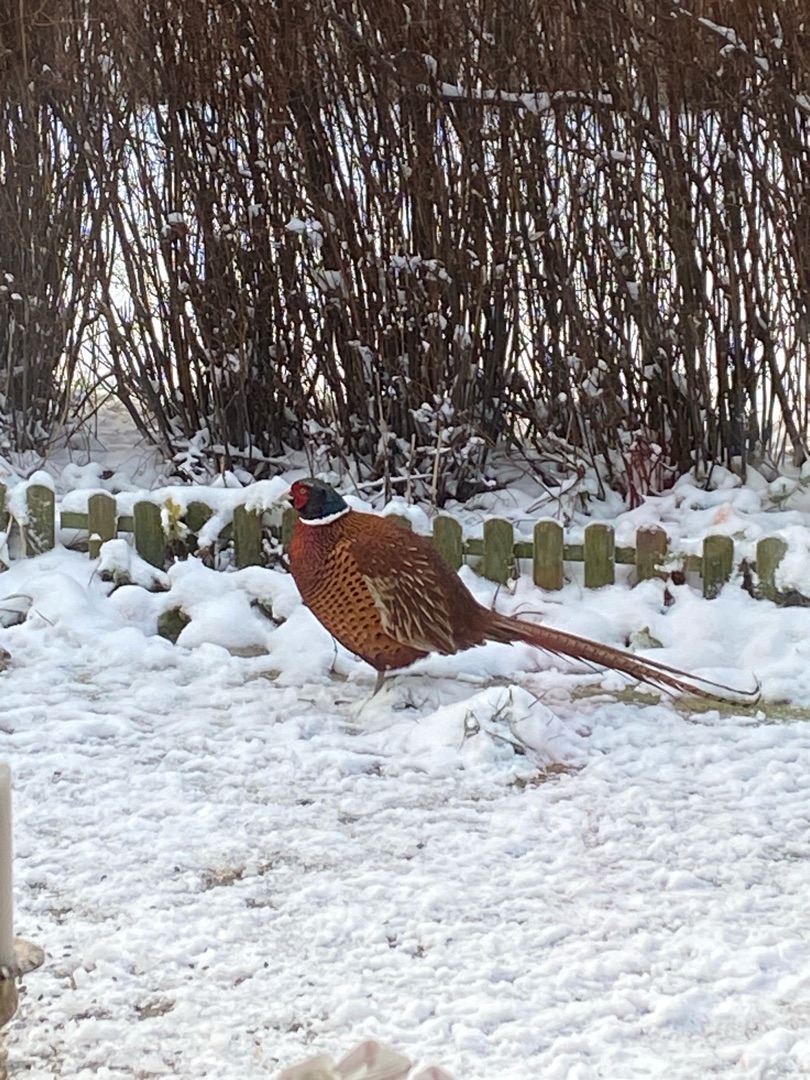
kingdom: Animalia
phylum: Chordata
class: Aves
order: Galliformes
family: Phasianidae
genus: Phasianus
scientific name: Phasianus colchicus
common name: Fasan
